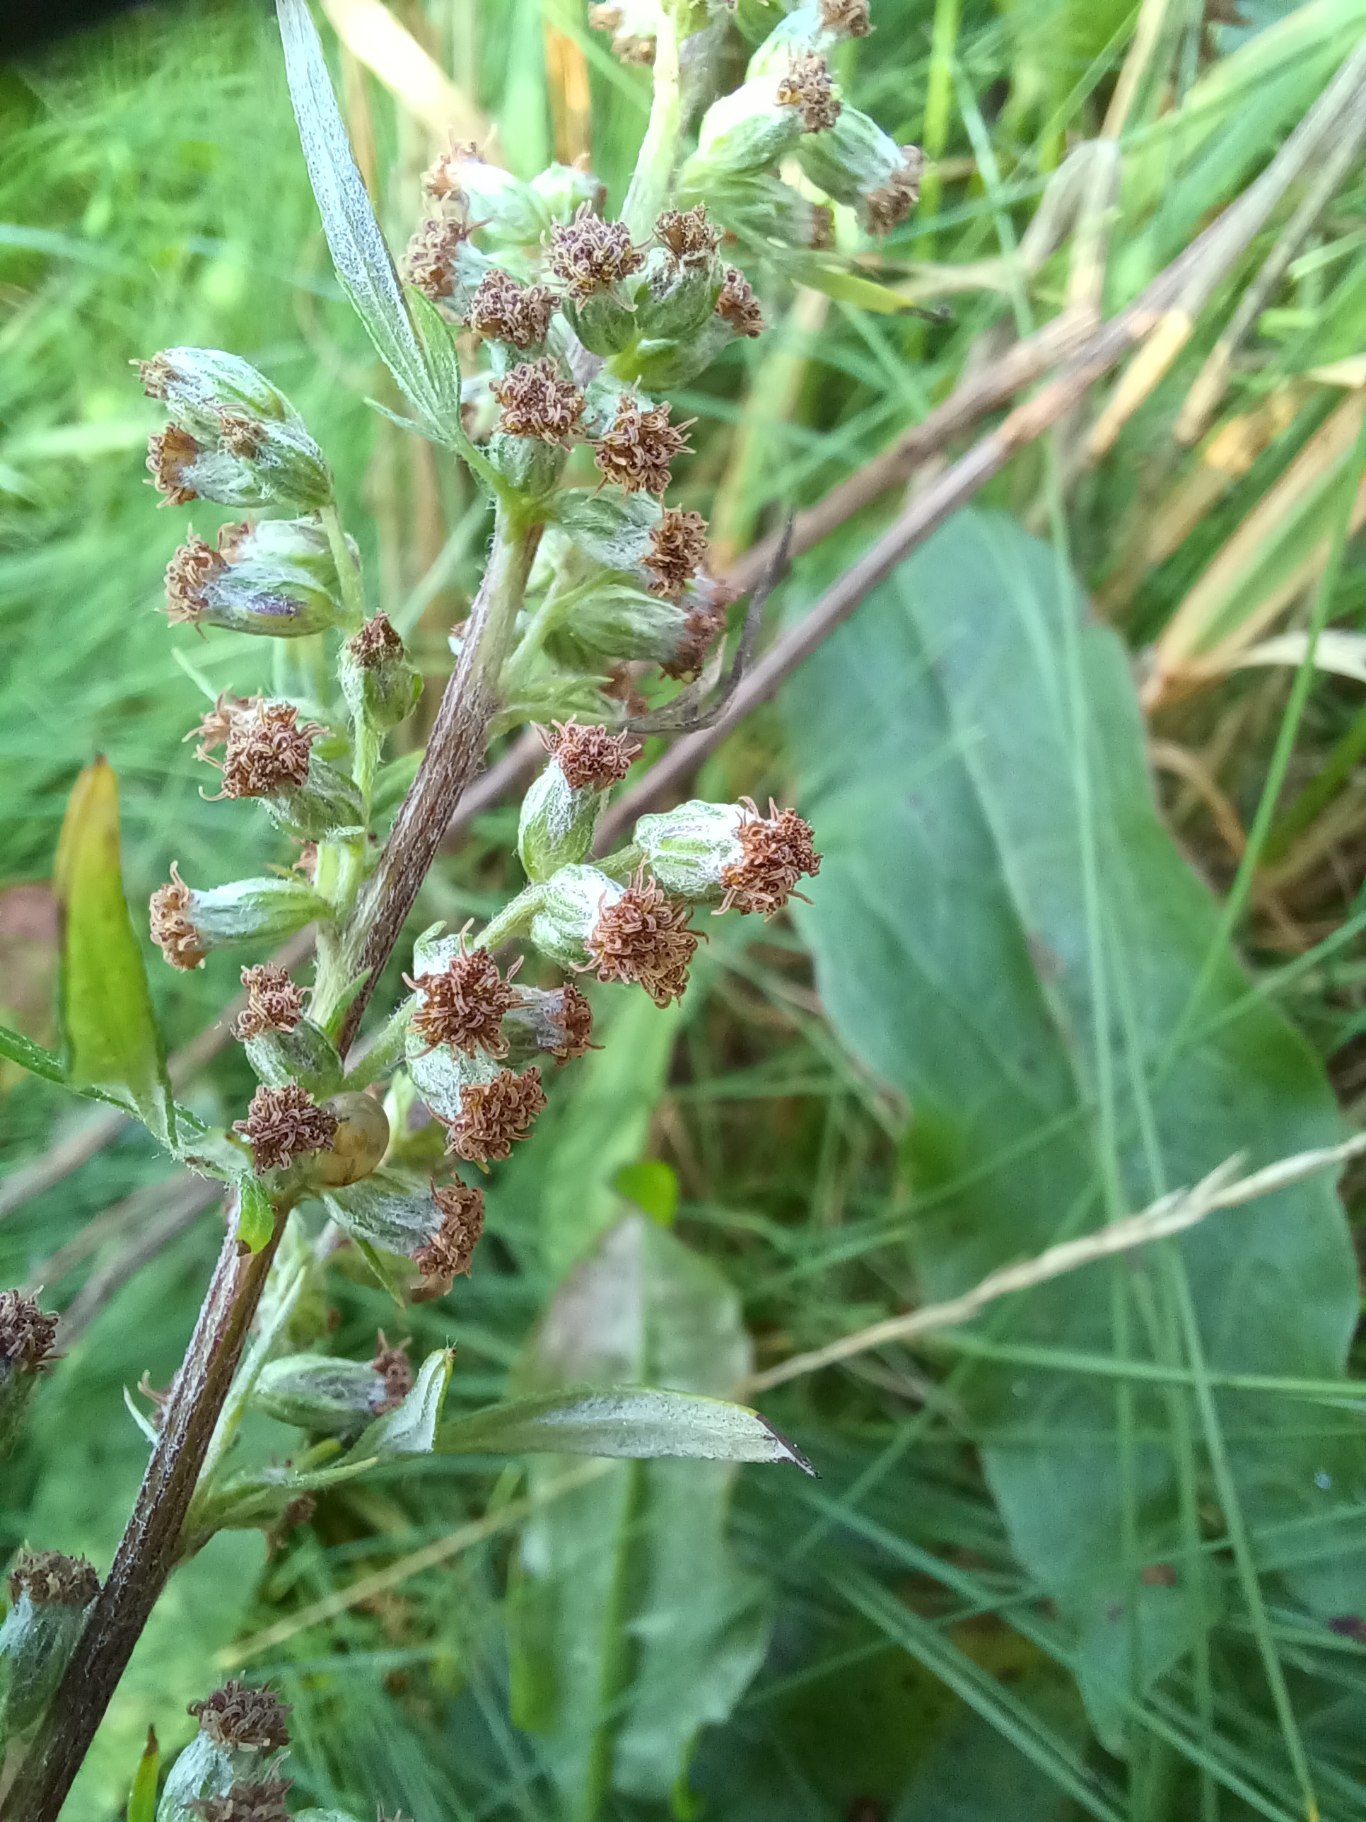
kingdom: Plantae
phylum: Tracheophyta
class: Magnoliopsida
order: Asterales
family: Asteraceae
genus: Artemisia
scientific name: Artemisia vulgaris
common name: Grå-bynke
